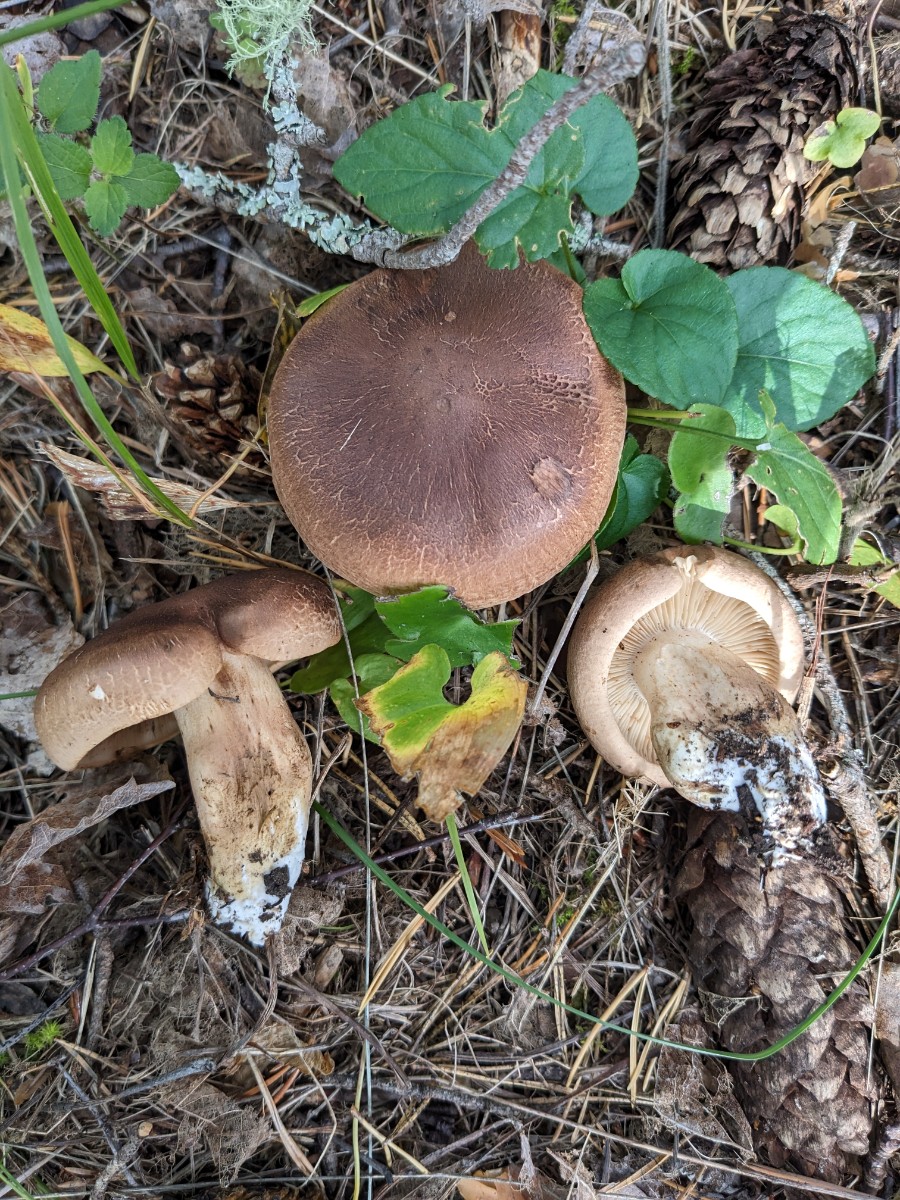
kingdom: Fungi
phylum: Basidiomycota
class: Agaricomycetes
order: Agaricales
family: Tricholomataceae
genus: Tricholoma
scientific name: Tricholoma imbricatum
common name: skællet ridderhat
